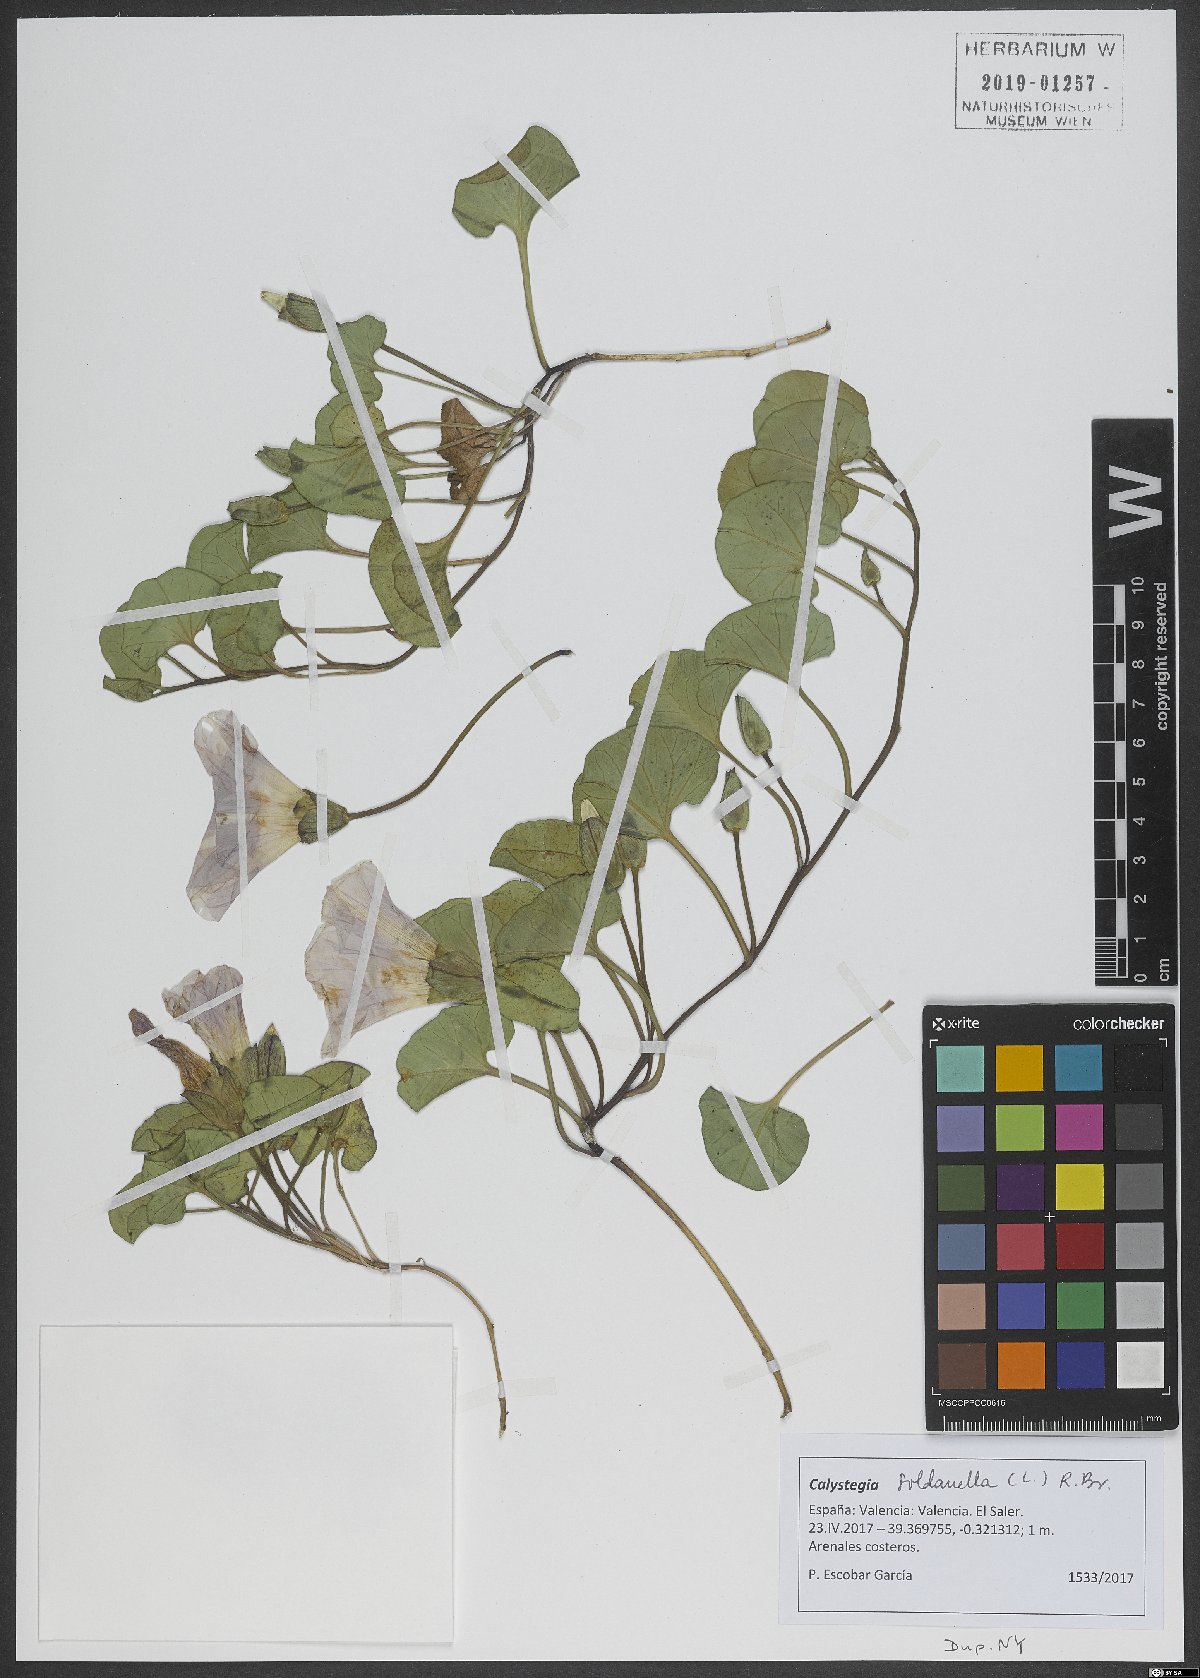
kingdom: Plantae
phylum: Tracheophyta
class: Magnoliopsida
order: Solanales
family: Convolvulaceae
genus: Calystegia
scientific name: Calystegia soldanella
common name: Sea bindweed
